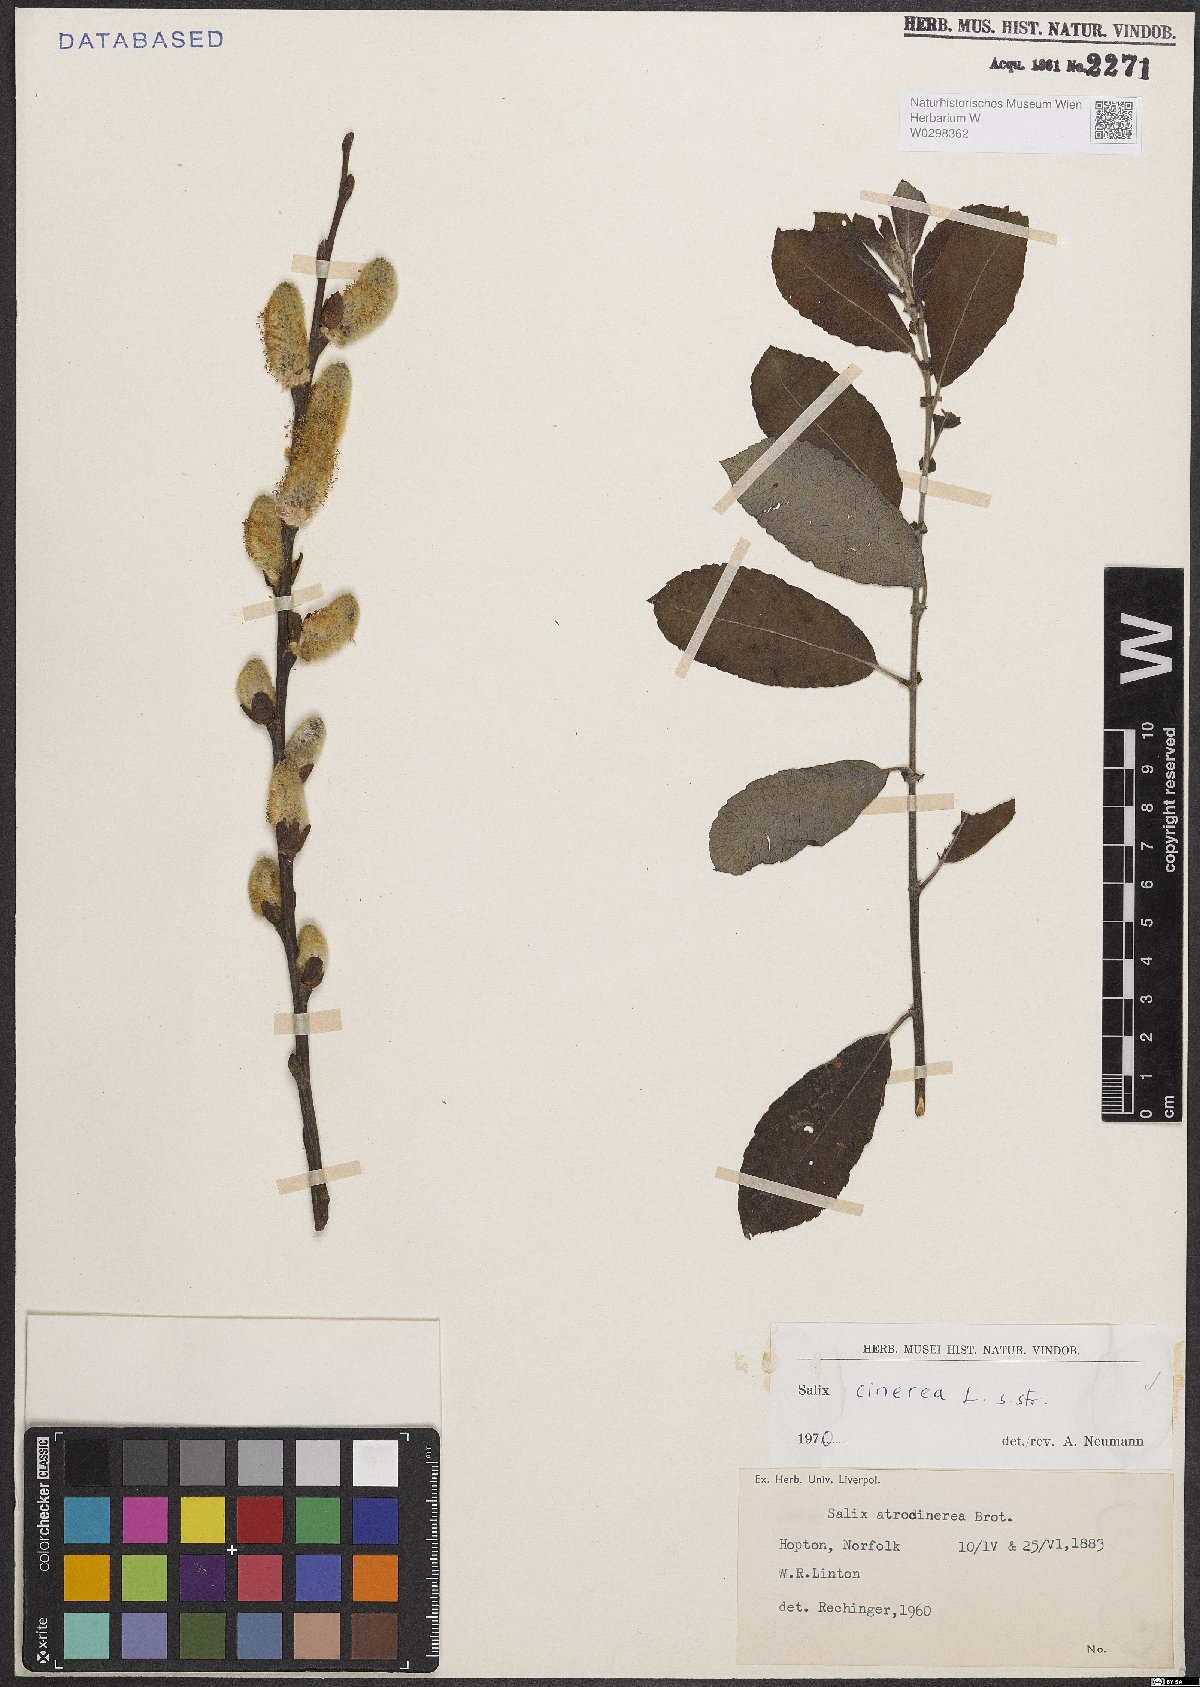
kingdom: Plantae
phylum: Tracheophyta
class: Magnoliopsida
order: Malpighiales
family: Salicaceae
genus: Salix
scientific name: Salix cinerea
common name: Common sallow
